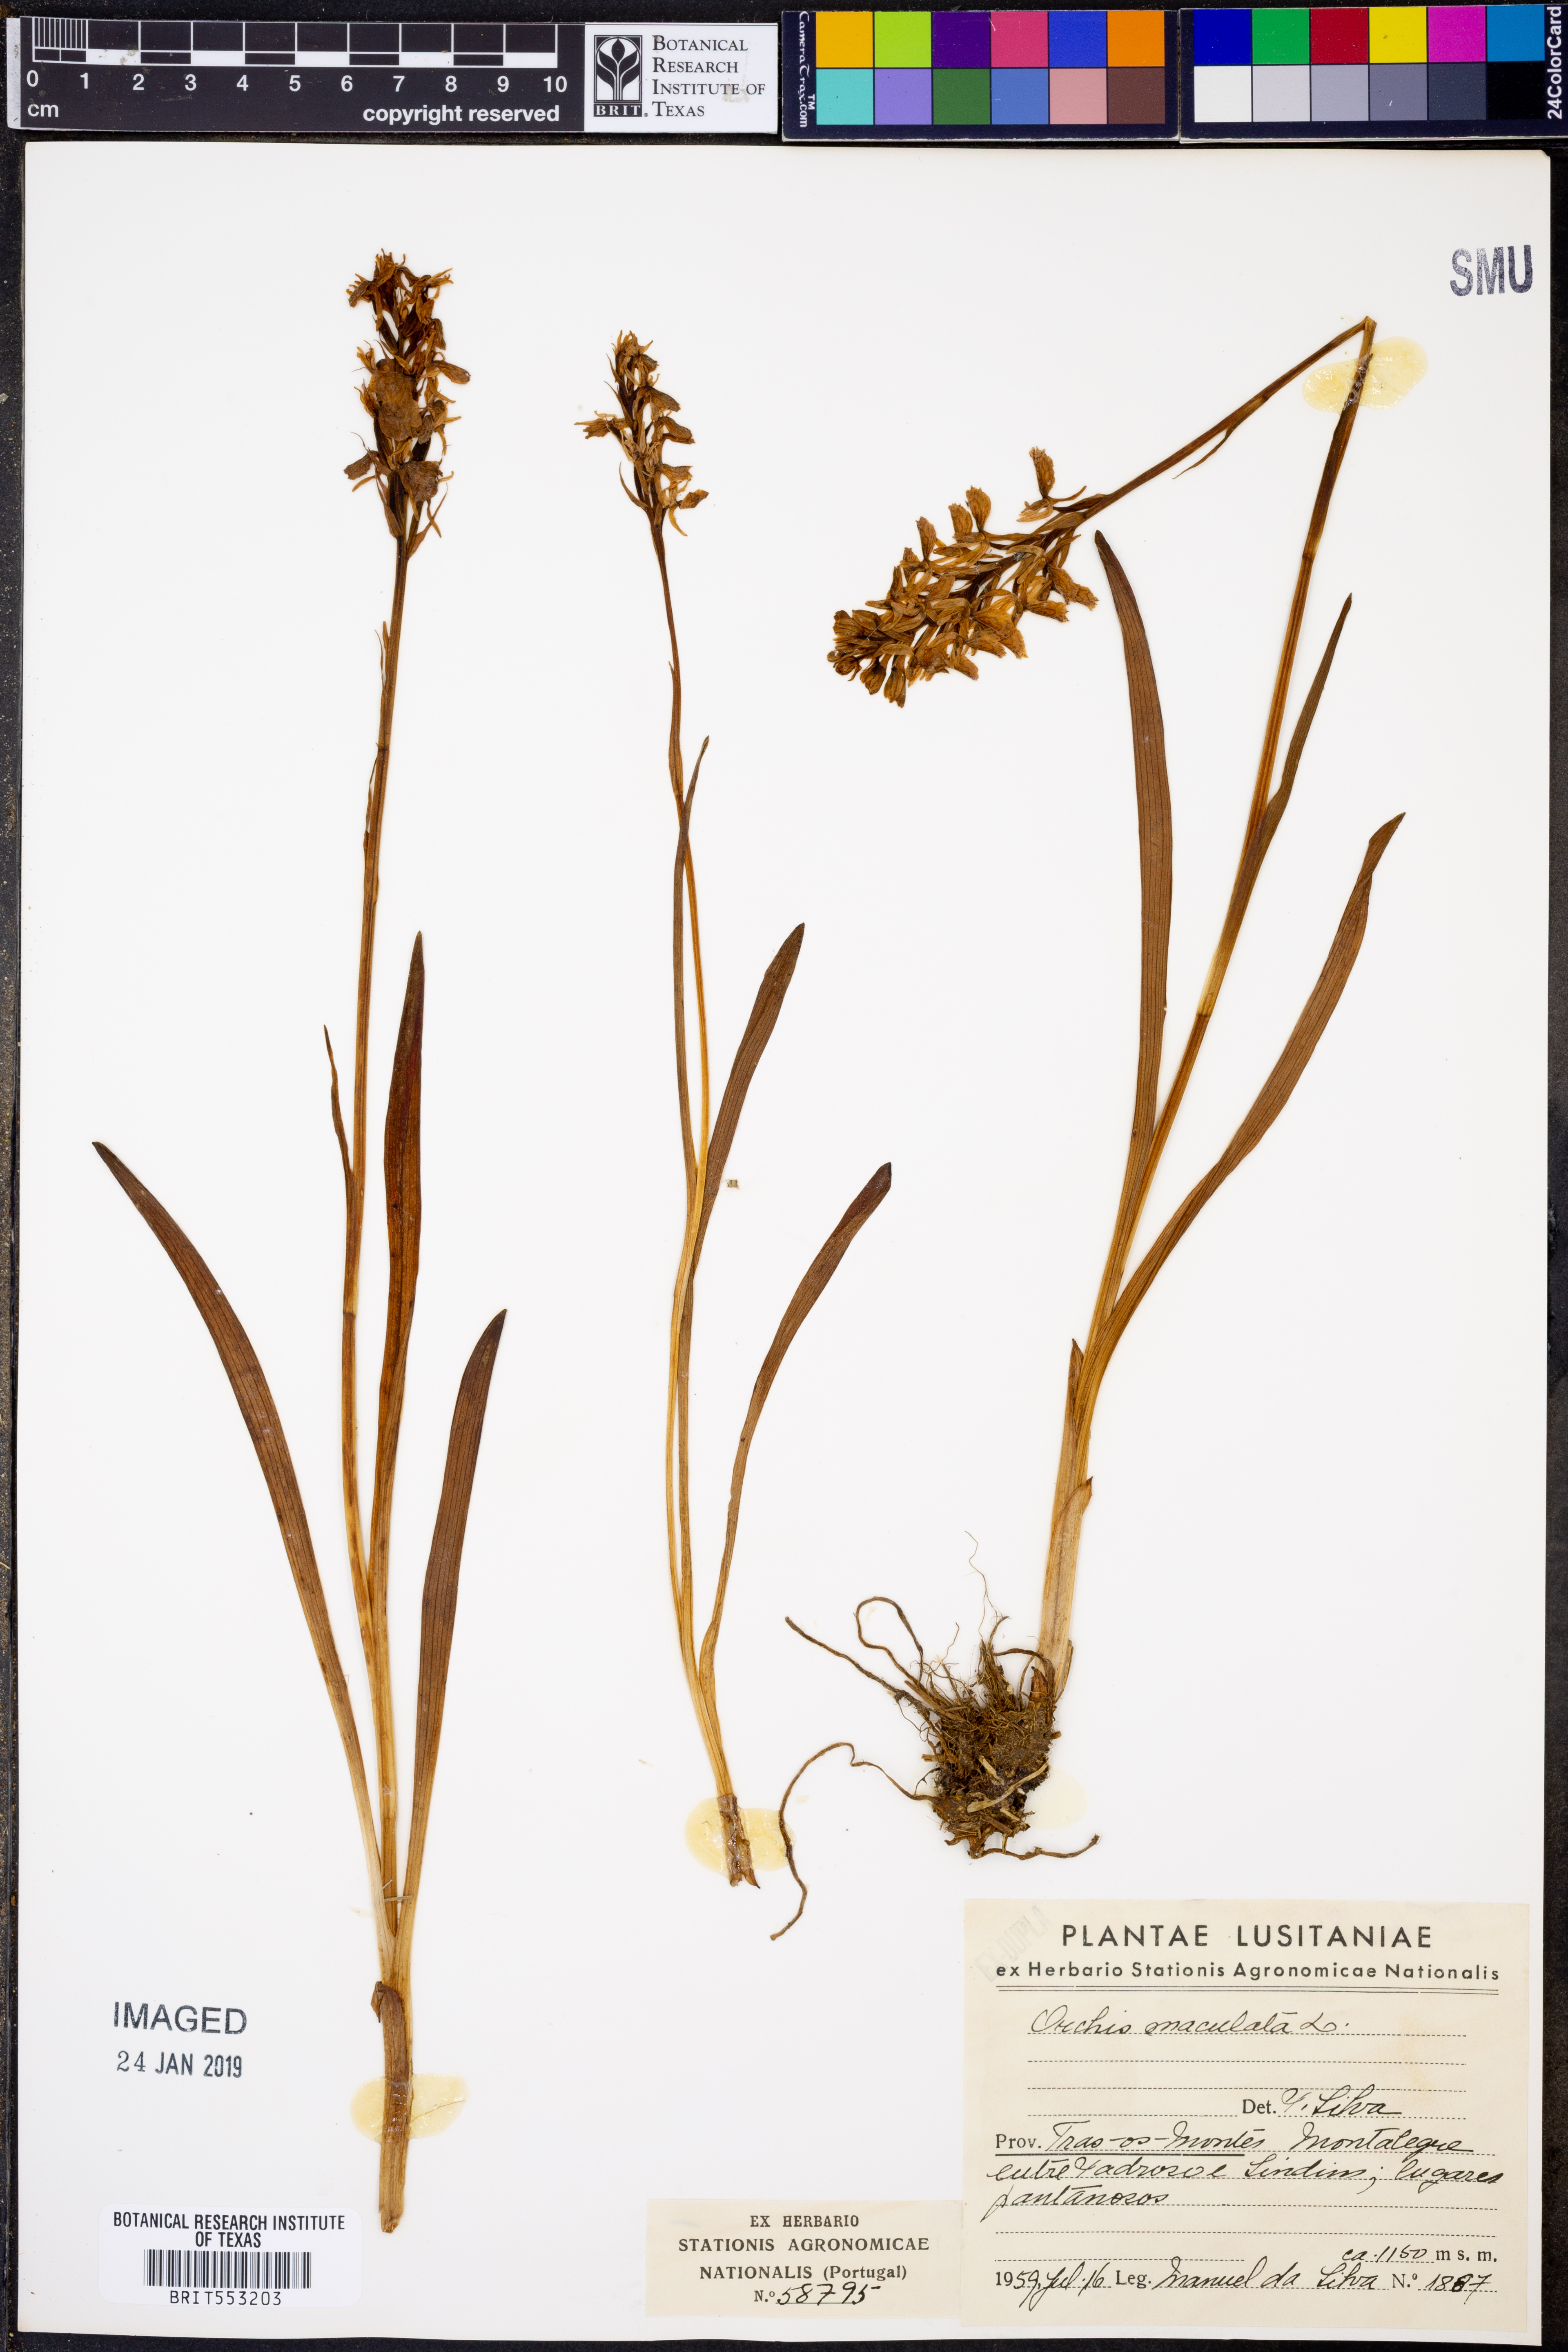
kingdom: Plantae
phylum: Tracheophyta
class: Liliopsida
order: Asparagales
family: Orchidaceae
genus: Dactylorhiza
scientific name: Dactylorhiza maculata
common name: Heath spotted-orchid
